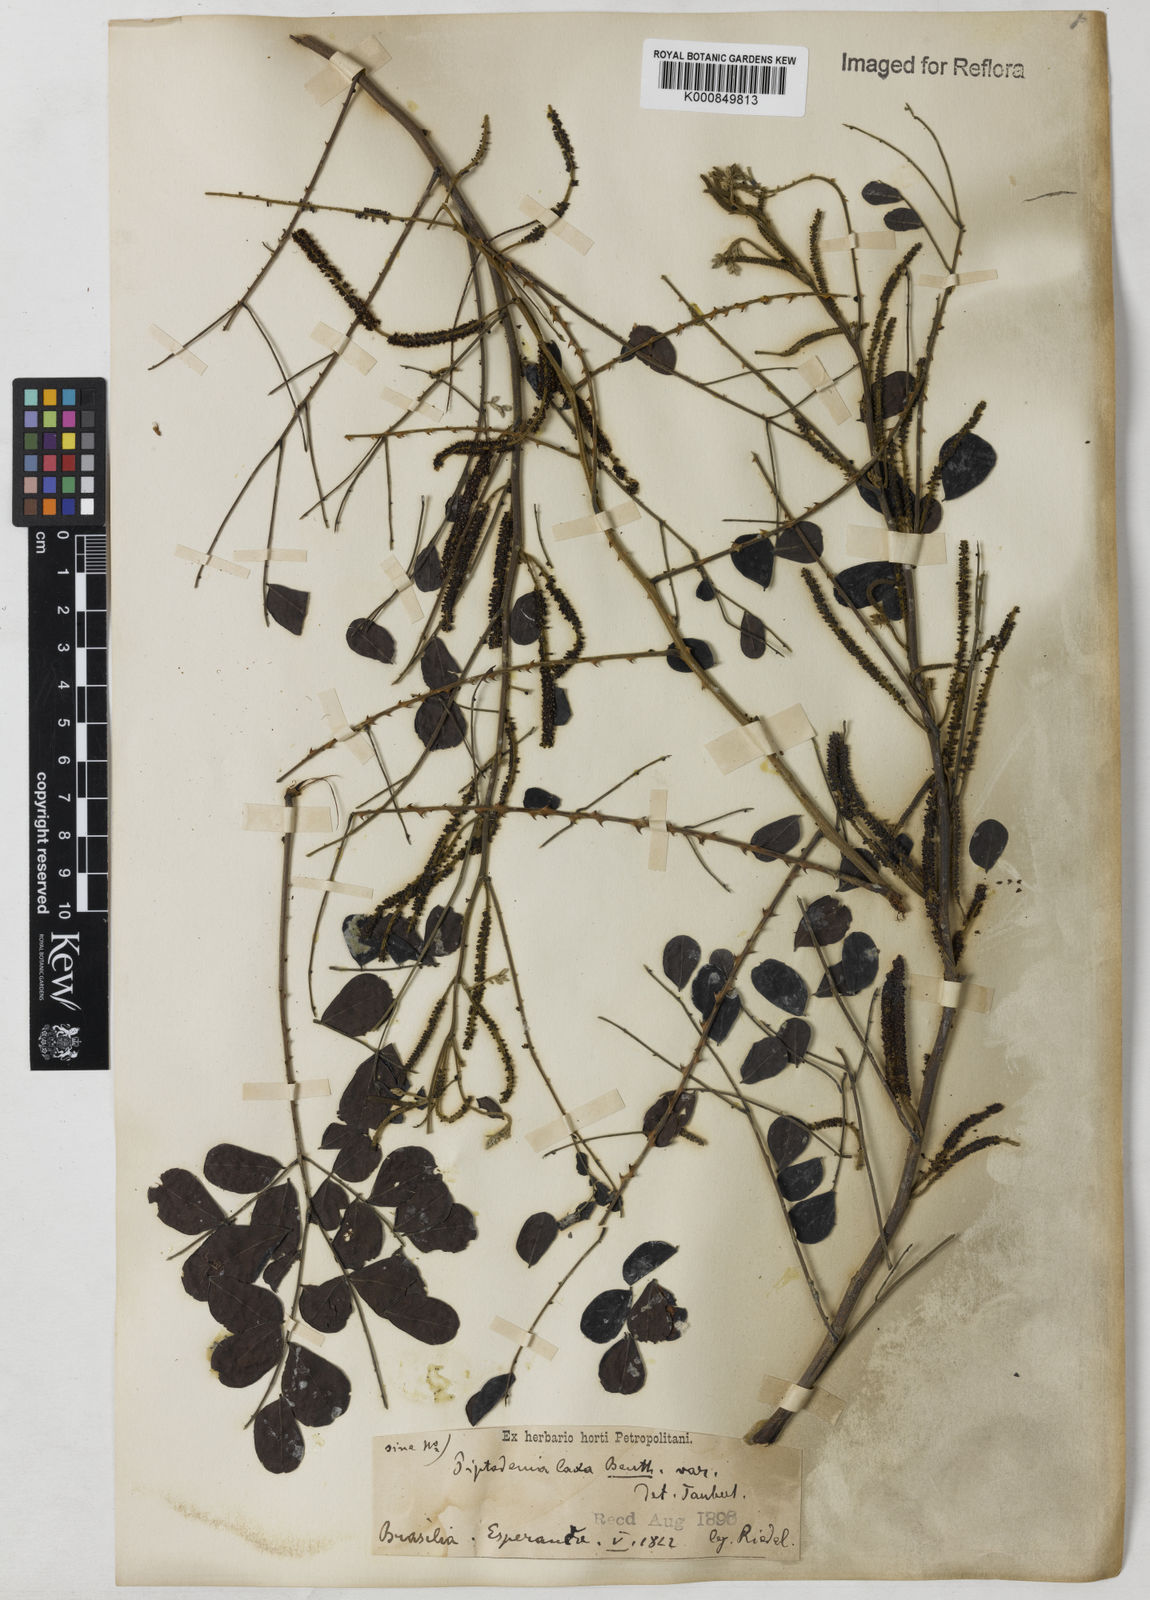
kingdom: Plantae
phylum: Tracheophyta
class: Magnoliopsida
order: Fabales
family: Fabaceae
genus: Piptadenia
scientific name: Piptadenia adiantoides
